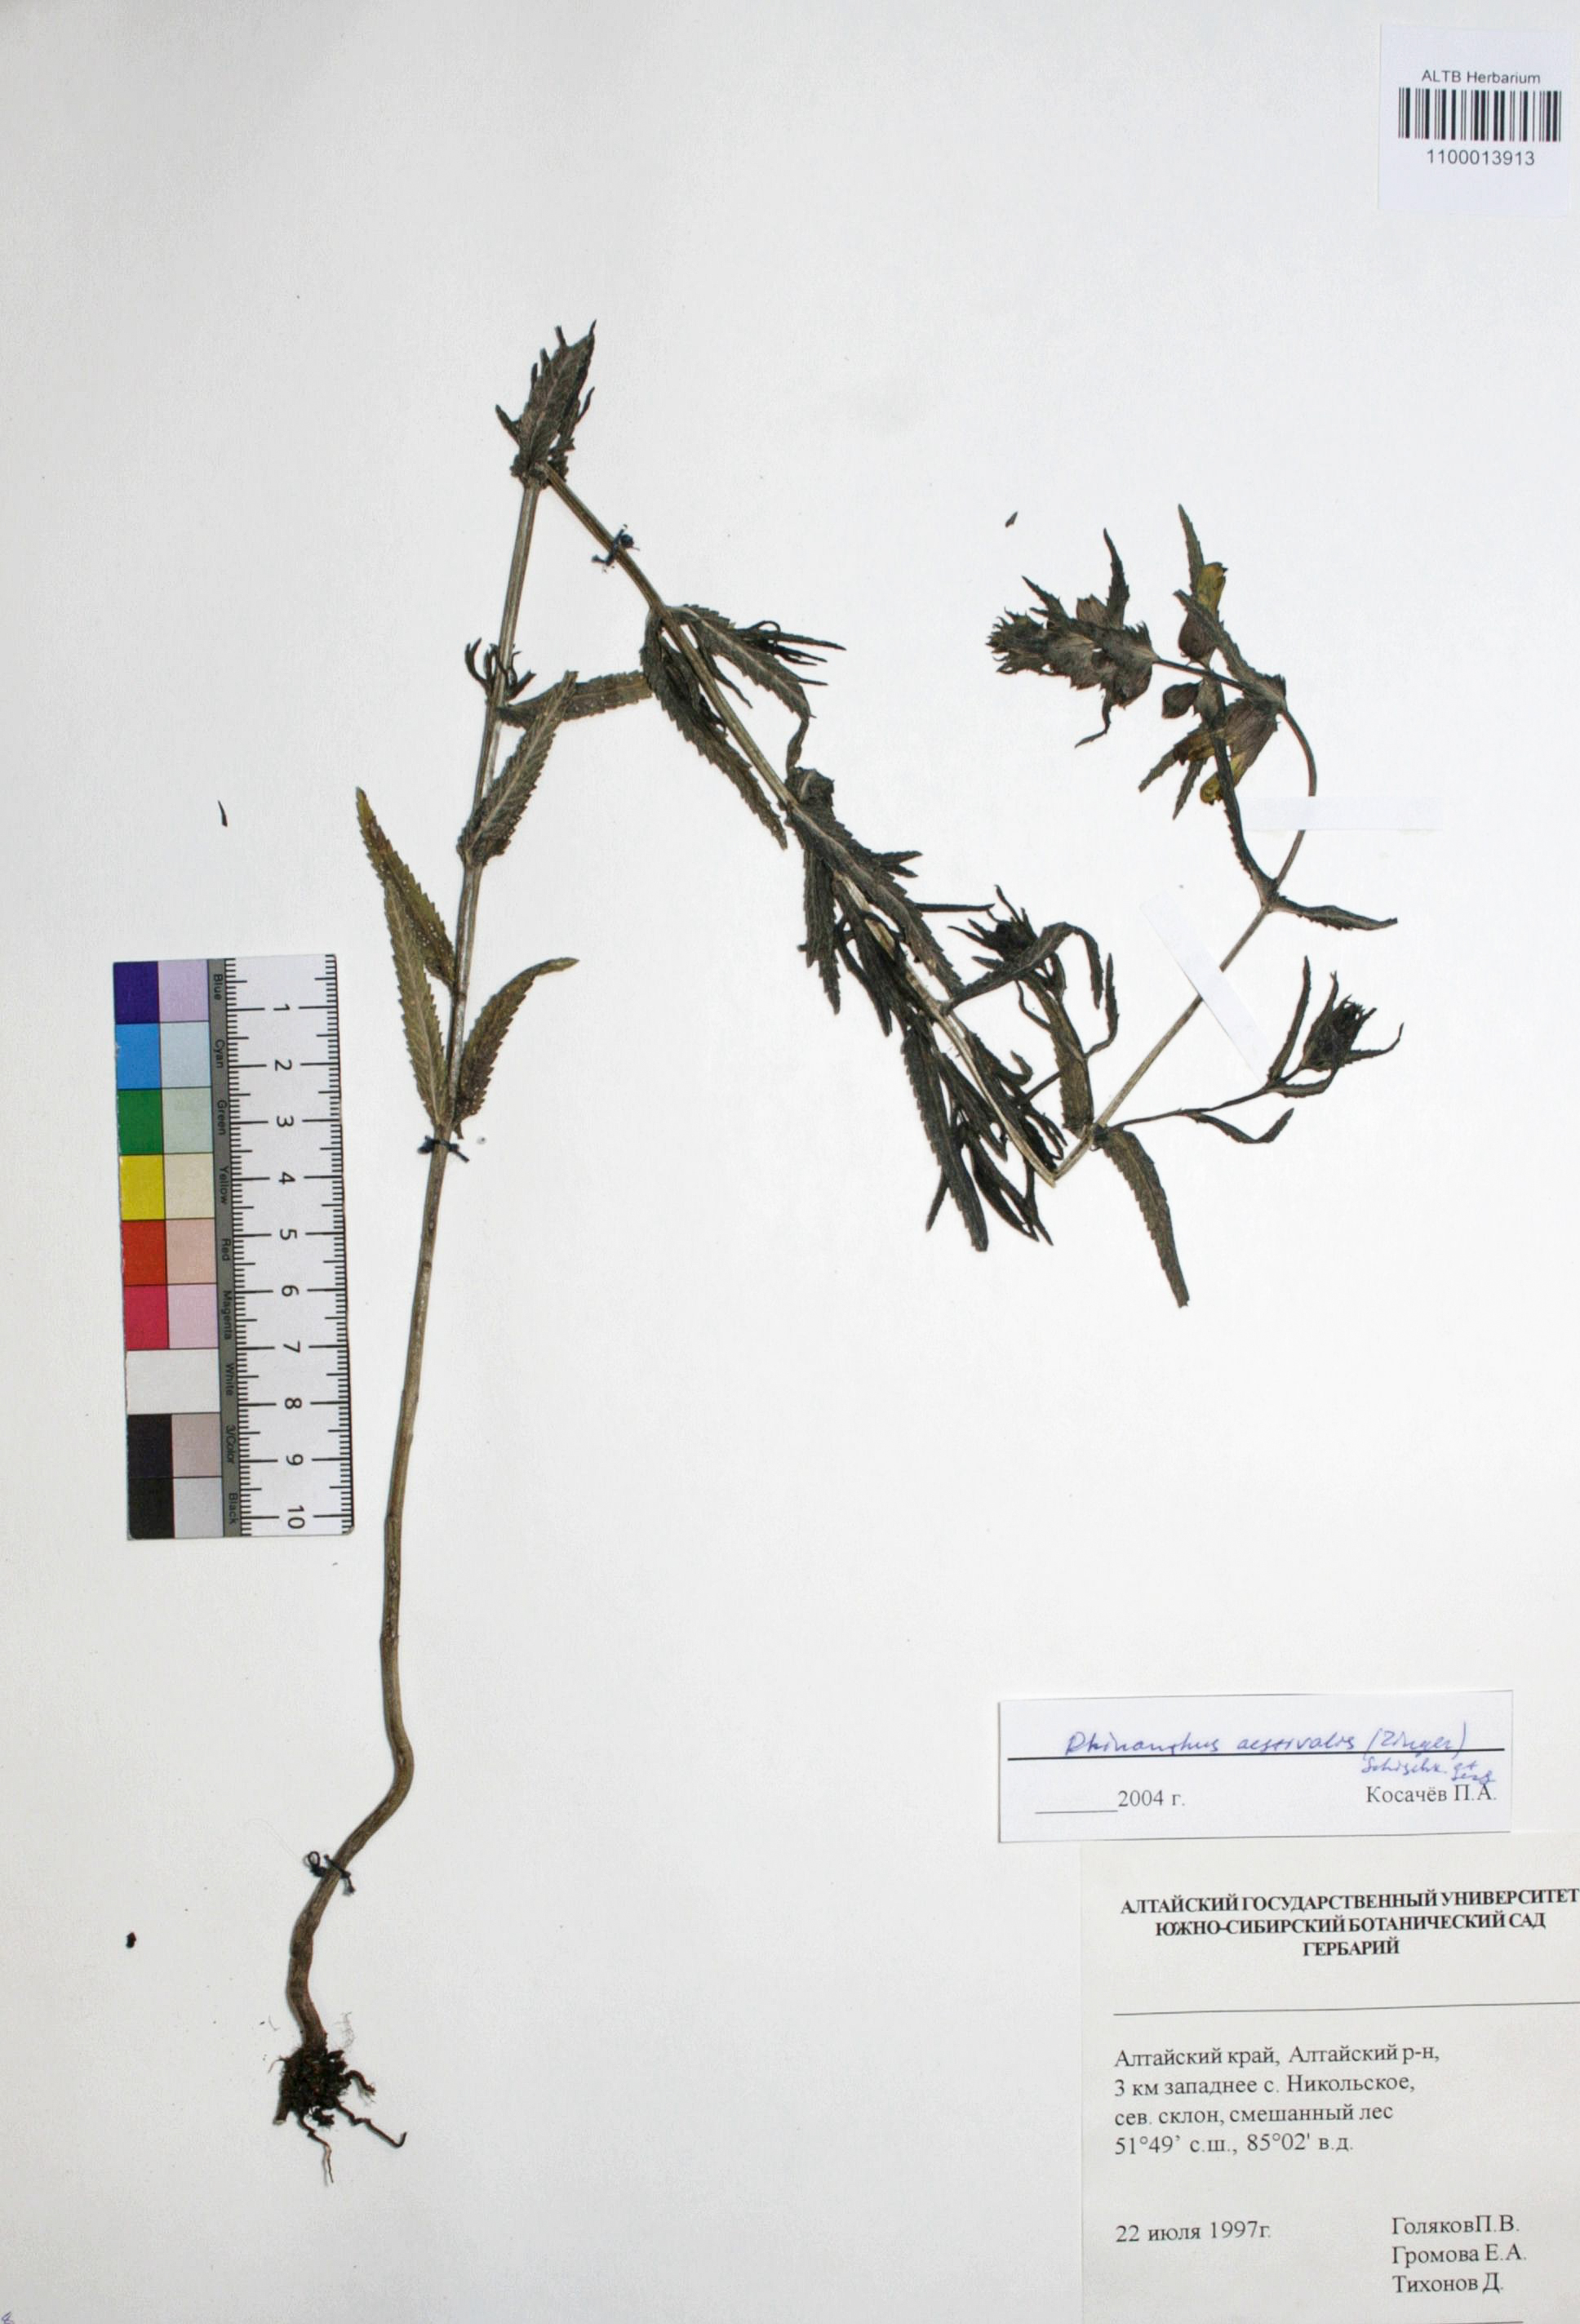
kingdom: Plantae
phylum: Tracheophyta
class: Magnoliopsida
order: Lamiales
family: Orobanchaceae
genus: Rhinanthus
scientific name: Rhinanthus serotinus
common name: Late-flowering yellow rattle
